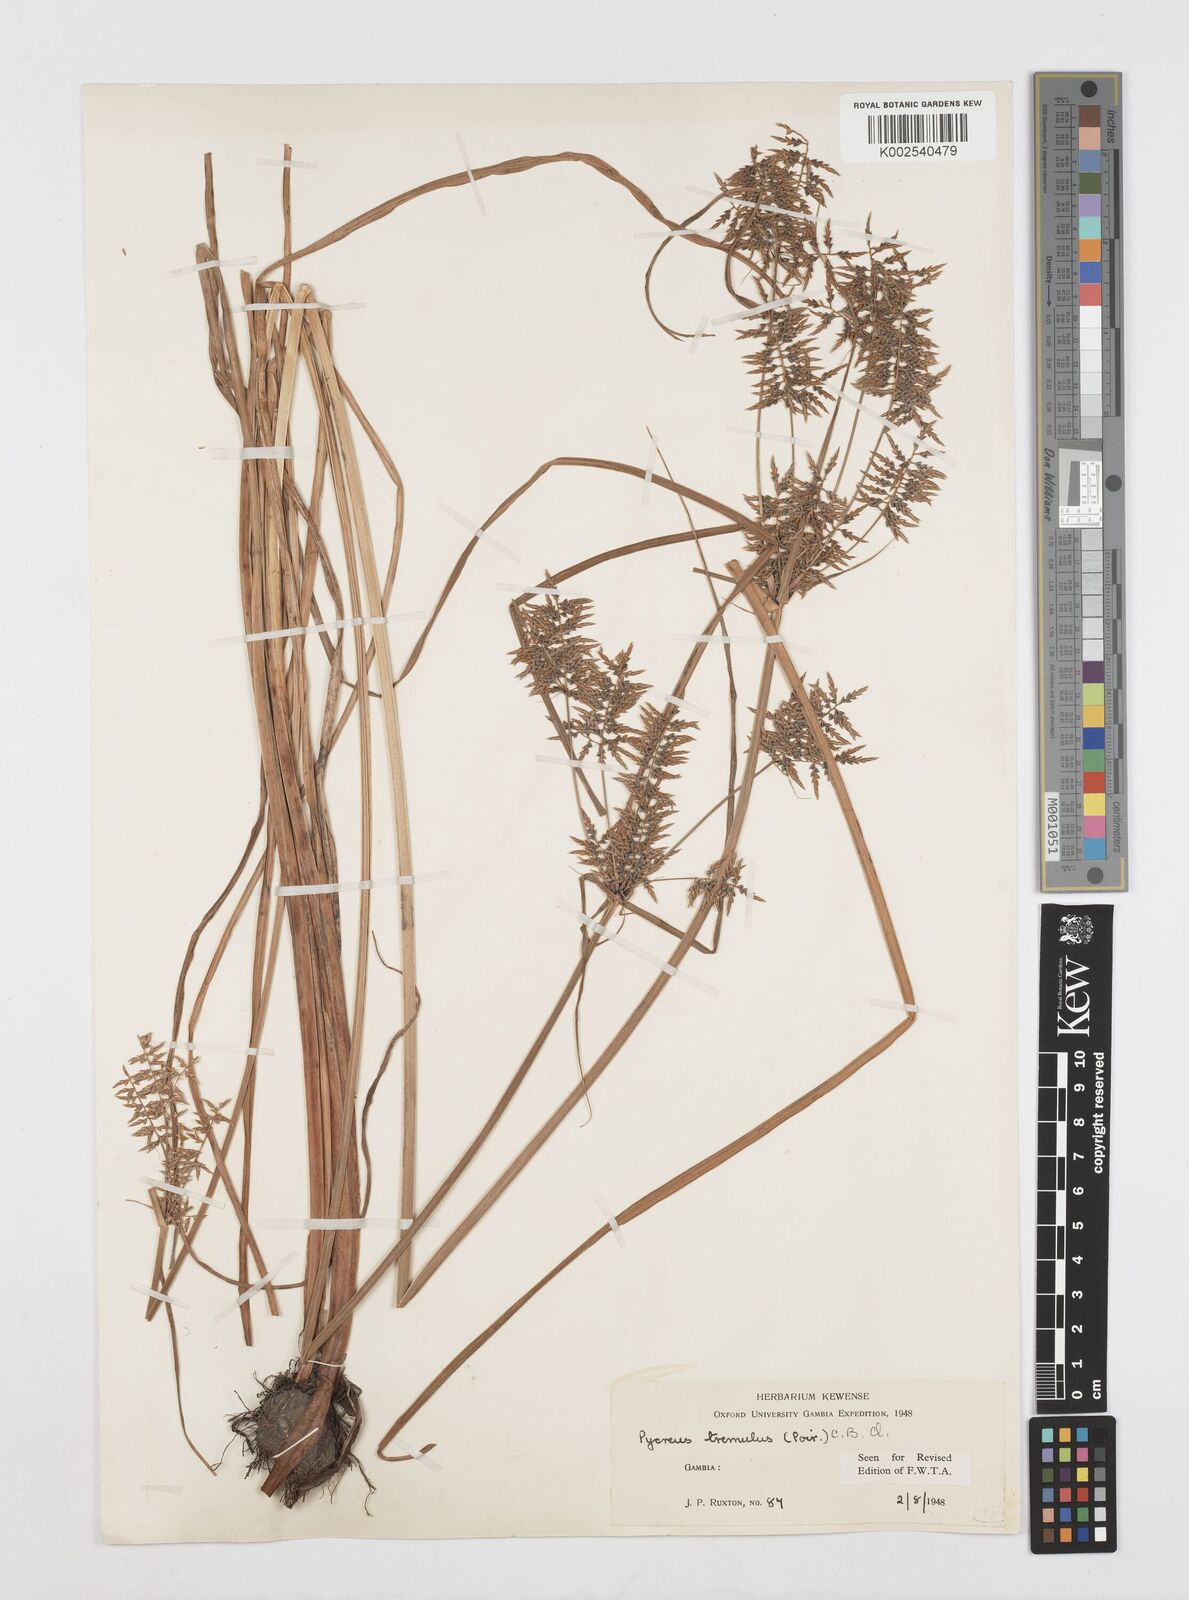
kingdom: Plantae
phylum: Tracheophyta
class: Liliopsida
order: Poales
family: Cyperaceae
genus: Cyperus
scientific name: Cyperus macrostachyos
